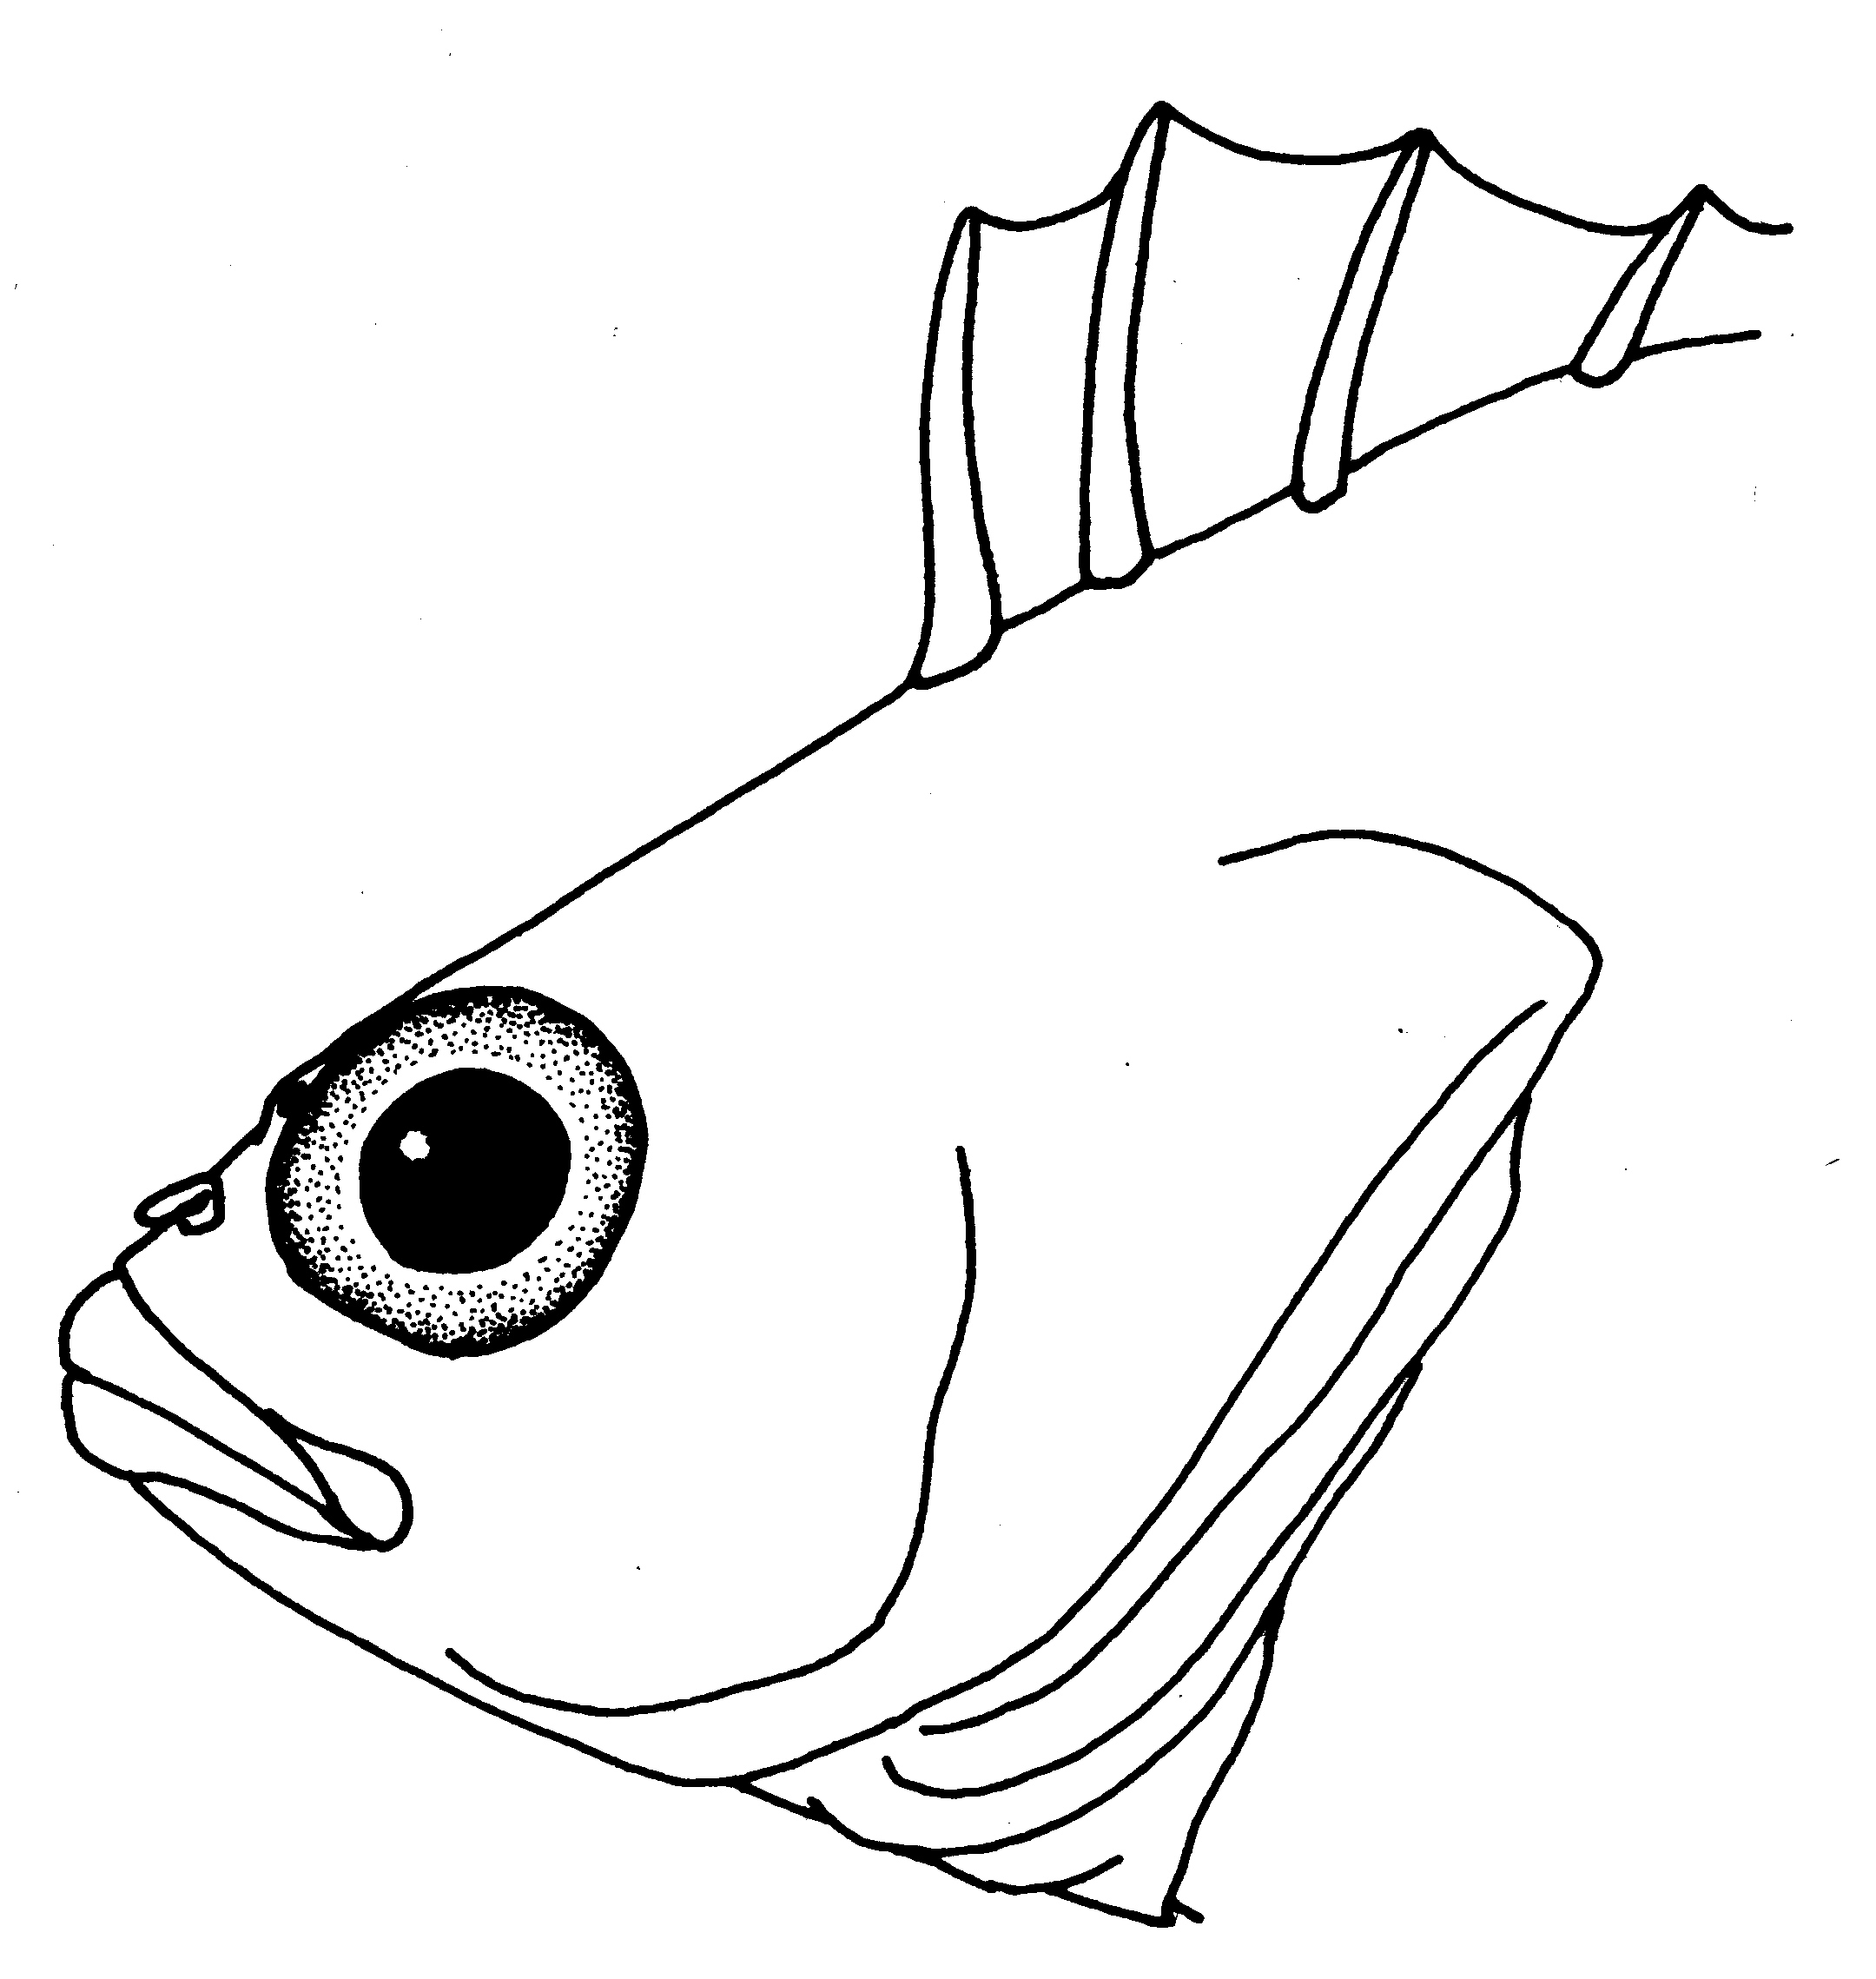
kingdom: Animalia
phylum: Chordata
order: Perciformes
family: Clinidae
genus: Pavoclinus
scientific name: Pavoclinus graminis
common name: Grass klipfish
